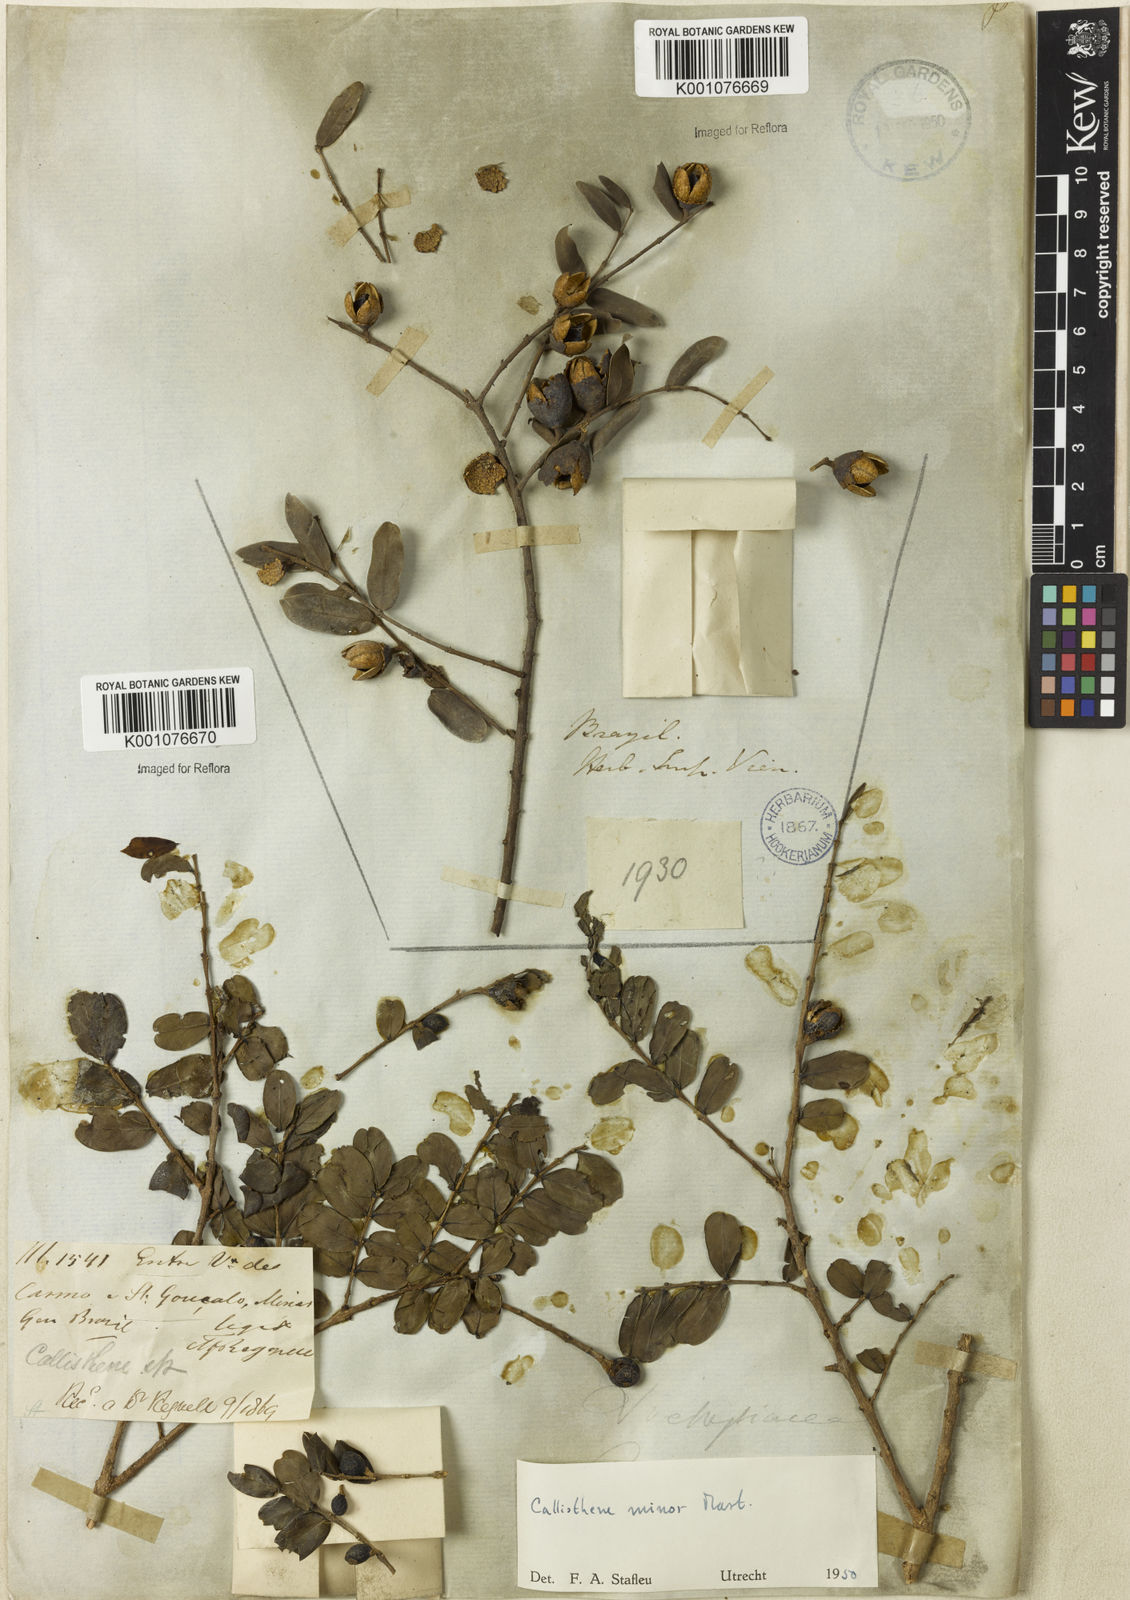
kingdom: Plantae
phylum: Tracheophyta
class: Magnoliopsida
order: Myrtales
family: Vochysiaceae
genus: Callisthene
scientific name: Callisthene minor
